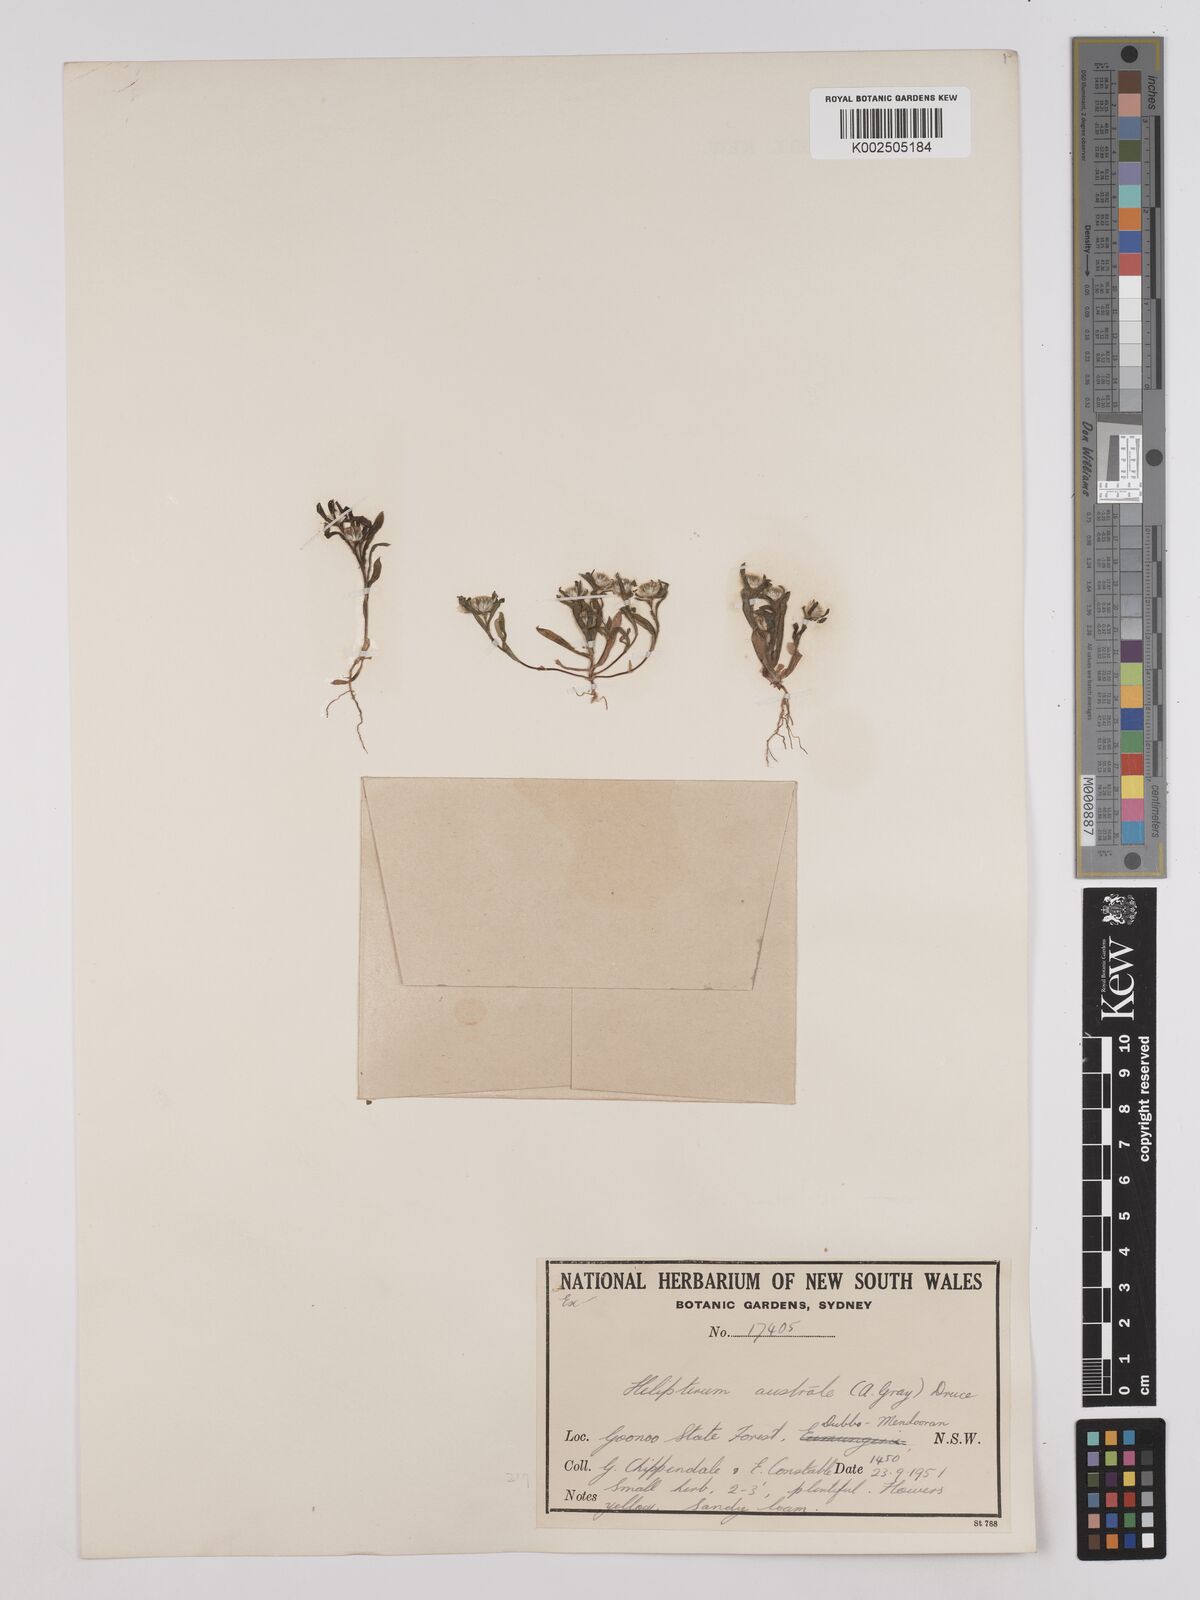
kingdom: Plantae
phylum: Tracheophyta
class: Magnoliopsida
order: Asterales
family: Asteraceae
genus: Triptilodiscus
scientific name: Triptilodiscus pygmaeus
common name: Common sunray
